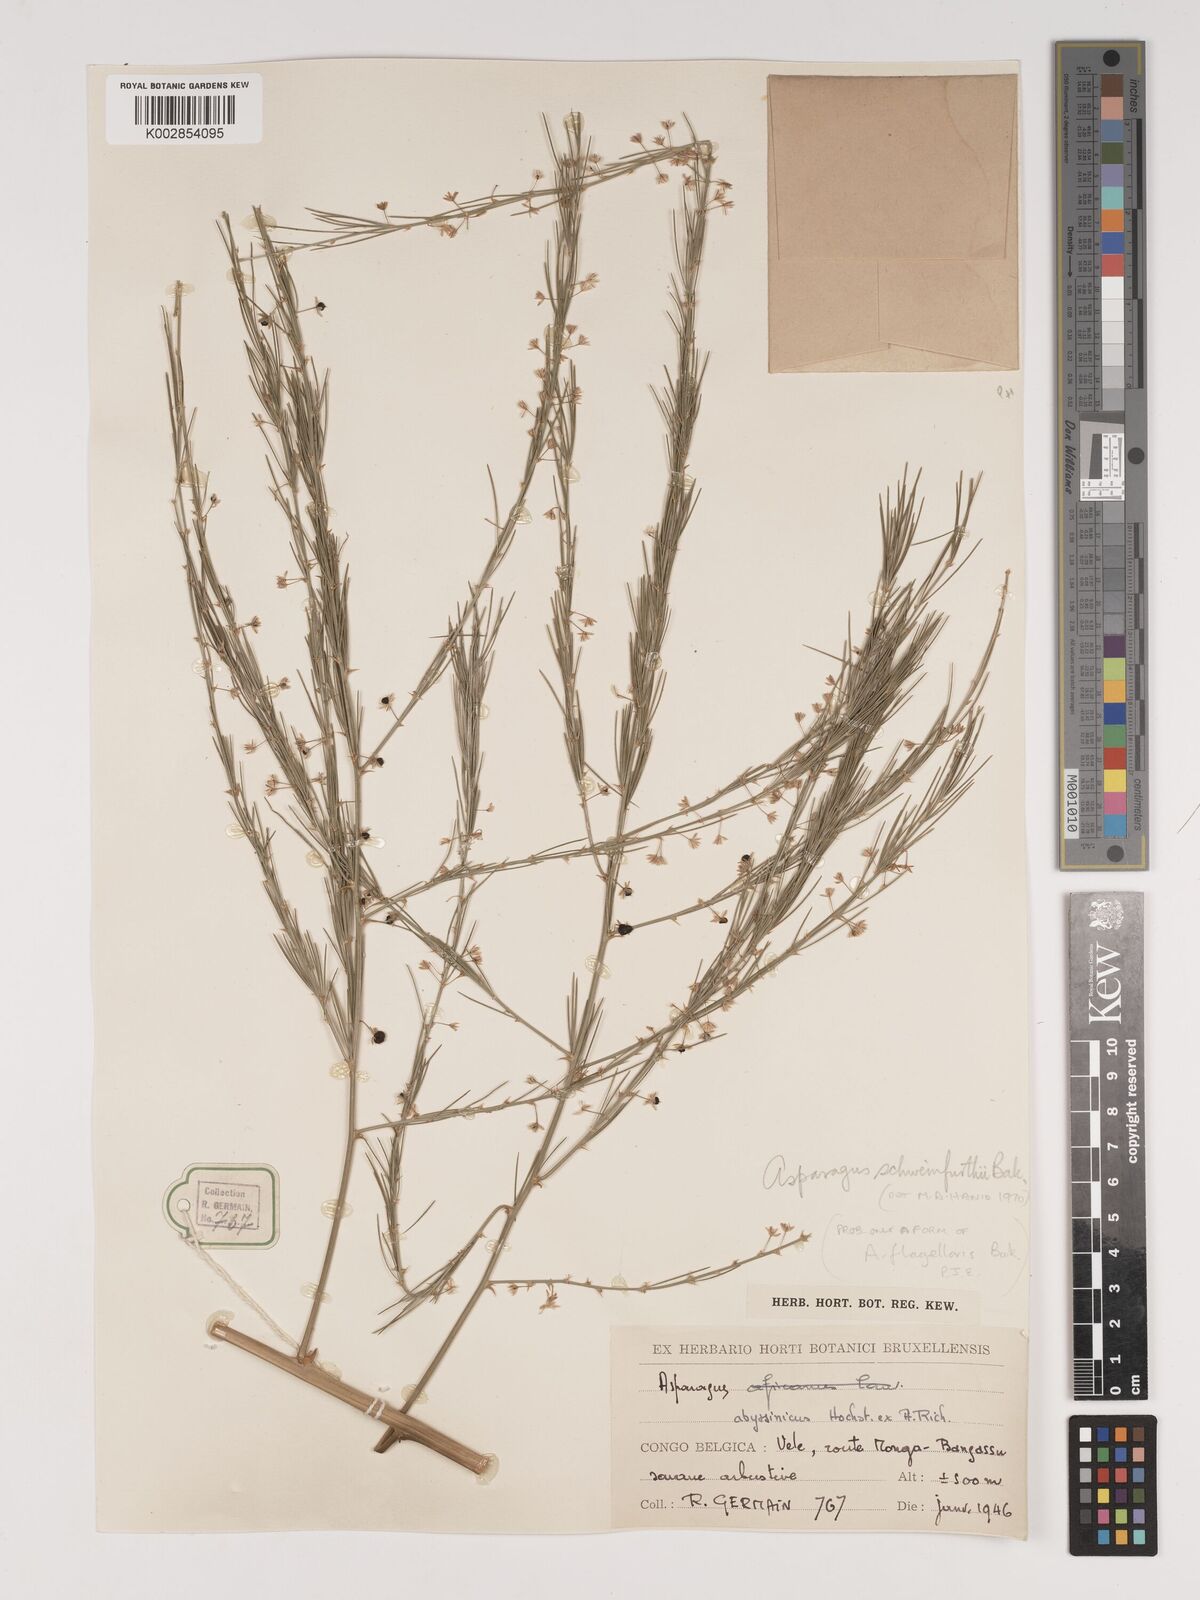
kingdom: Plantae
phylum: Tracheophyta
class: Liliopsida
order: Asparagales
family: Asparagaceae
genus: Asparagus
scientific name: Asparagus flagellaris
